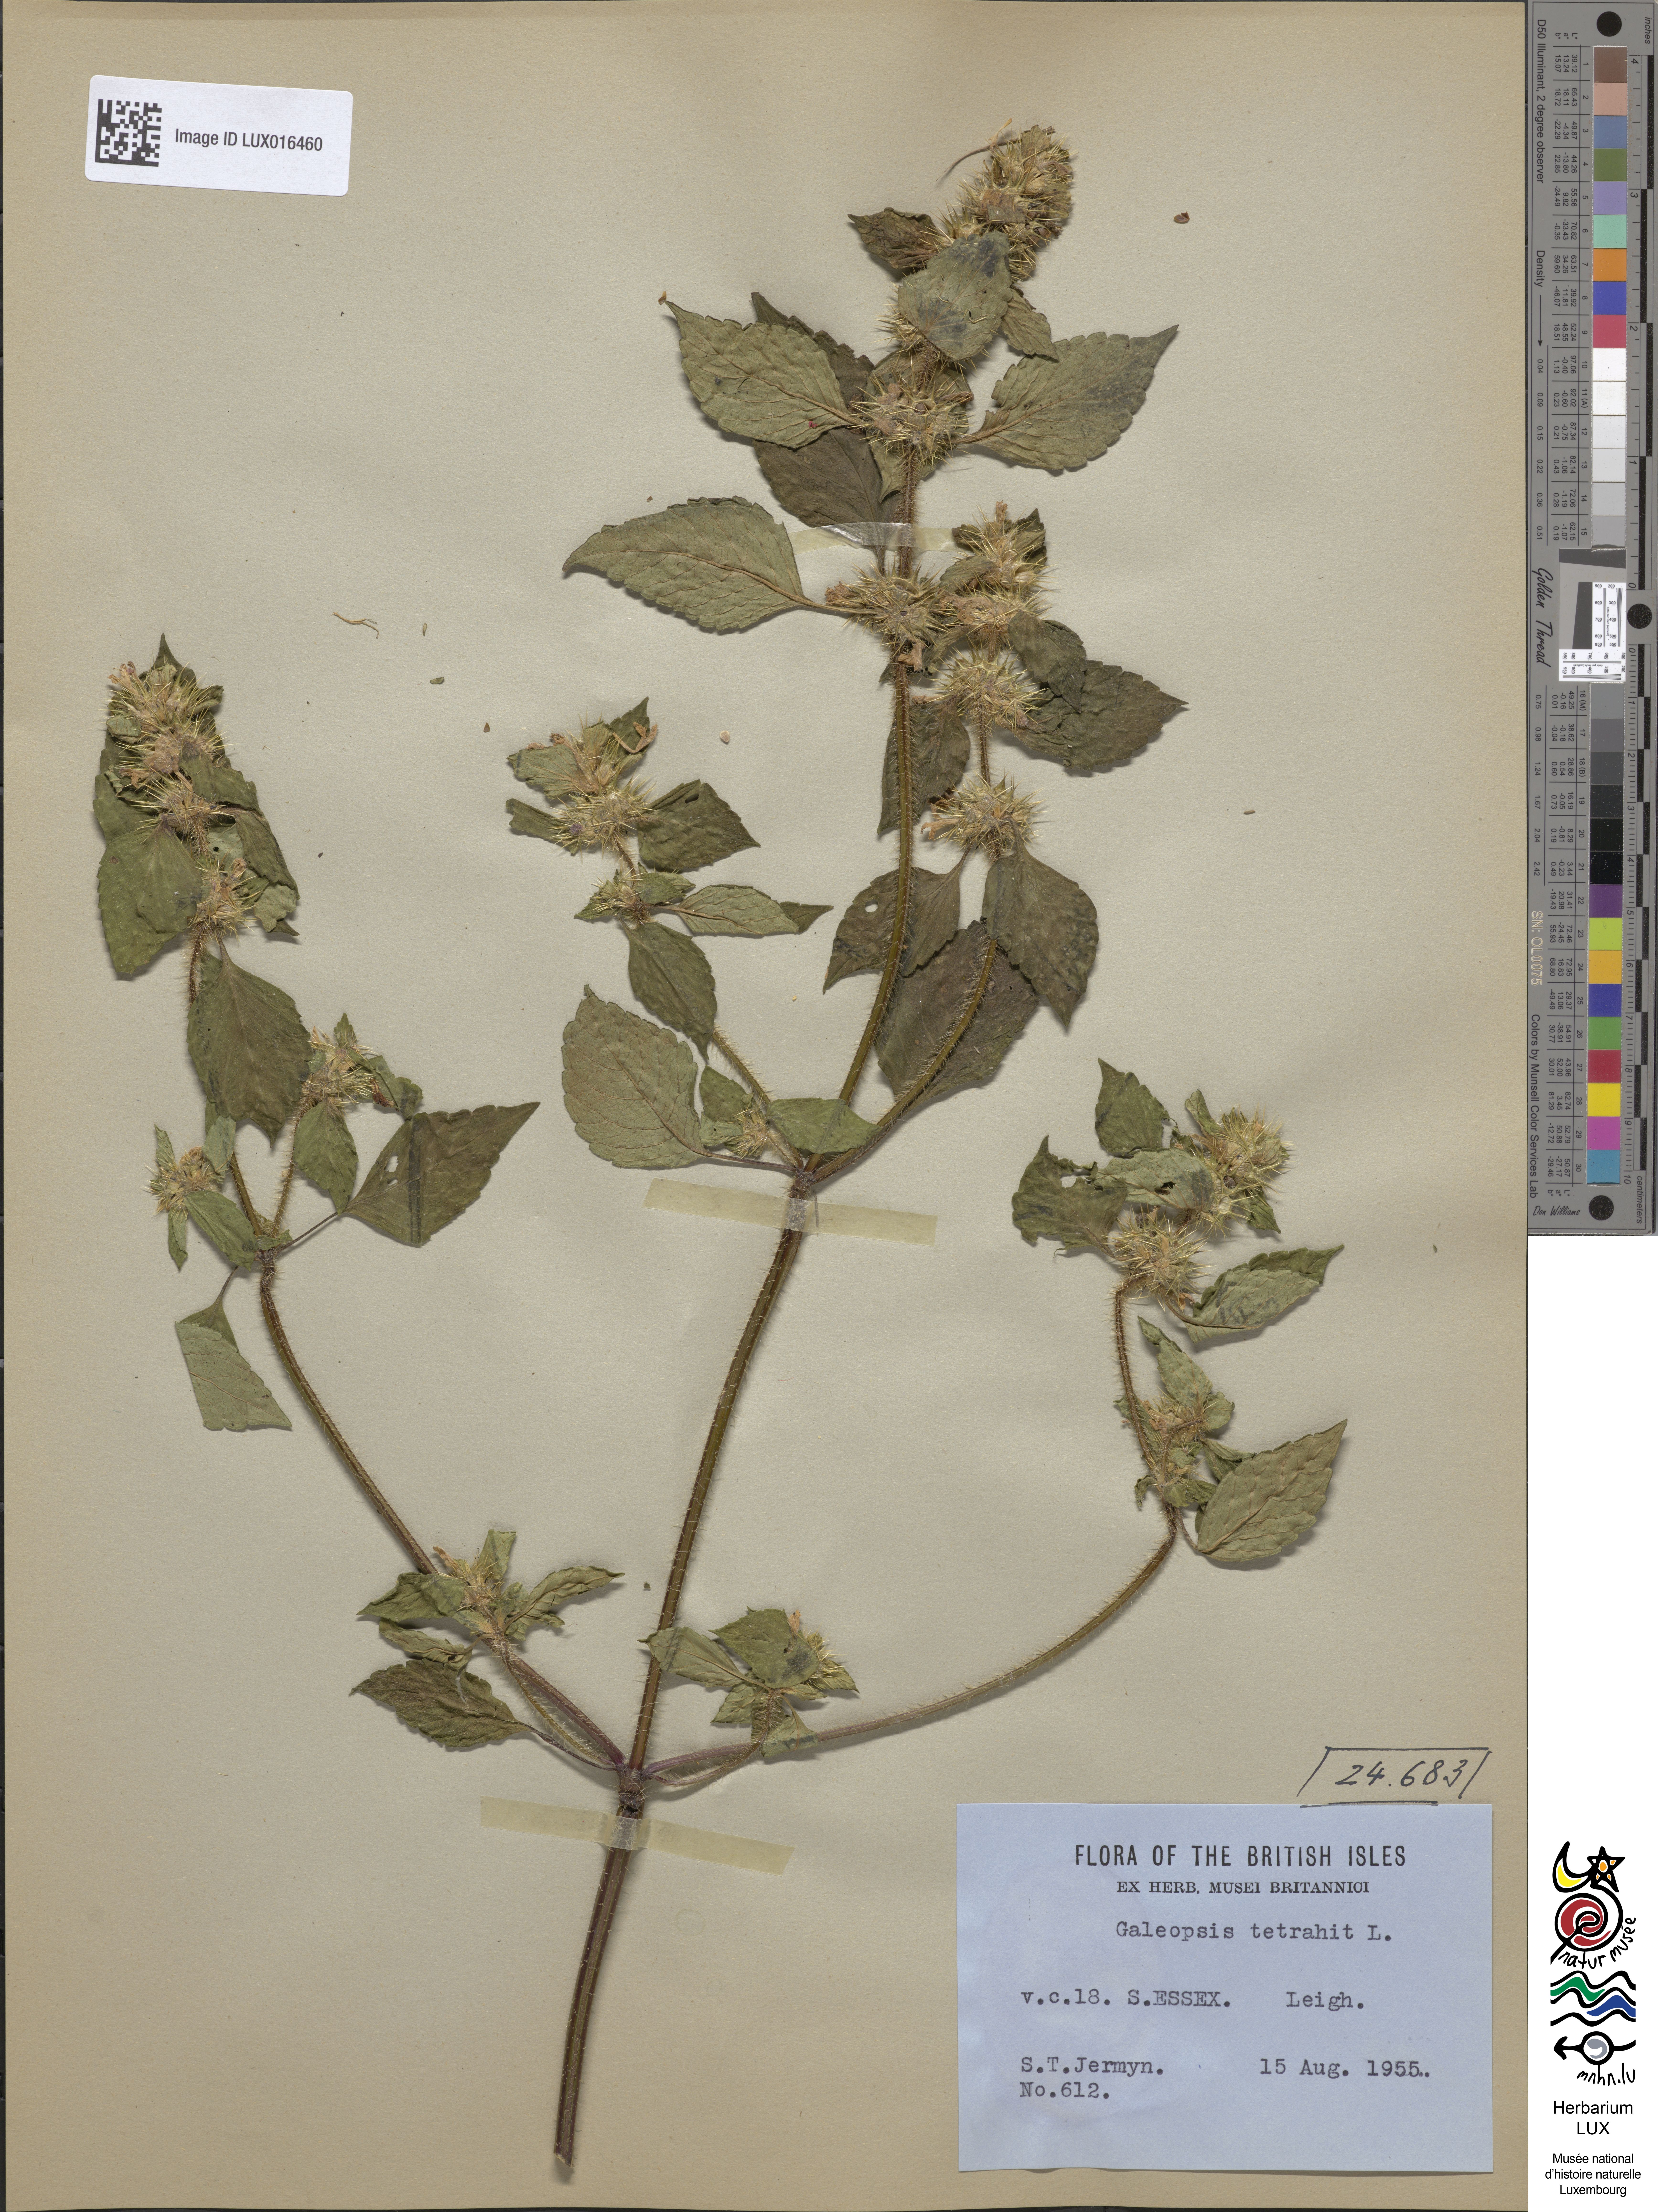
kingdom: Plantae
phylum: Tracheophyta
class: Magnoliopsida
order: Lamiales
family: Lamiaceae
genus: Galeopsis
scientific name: Galeopsis tetrahit
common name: Common hemp-nettle
